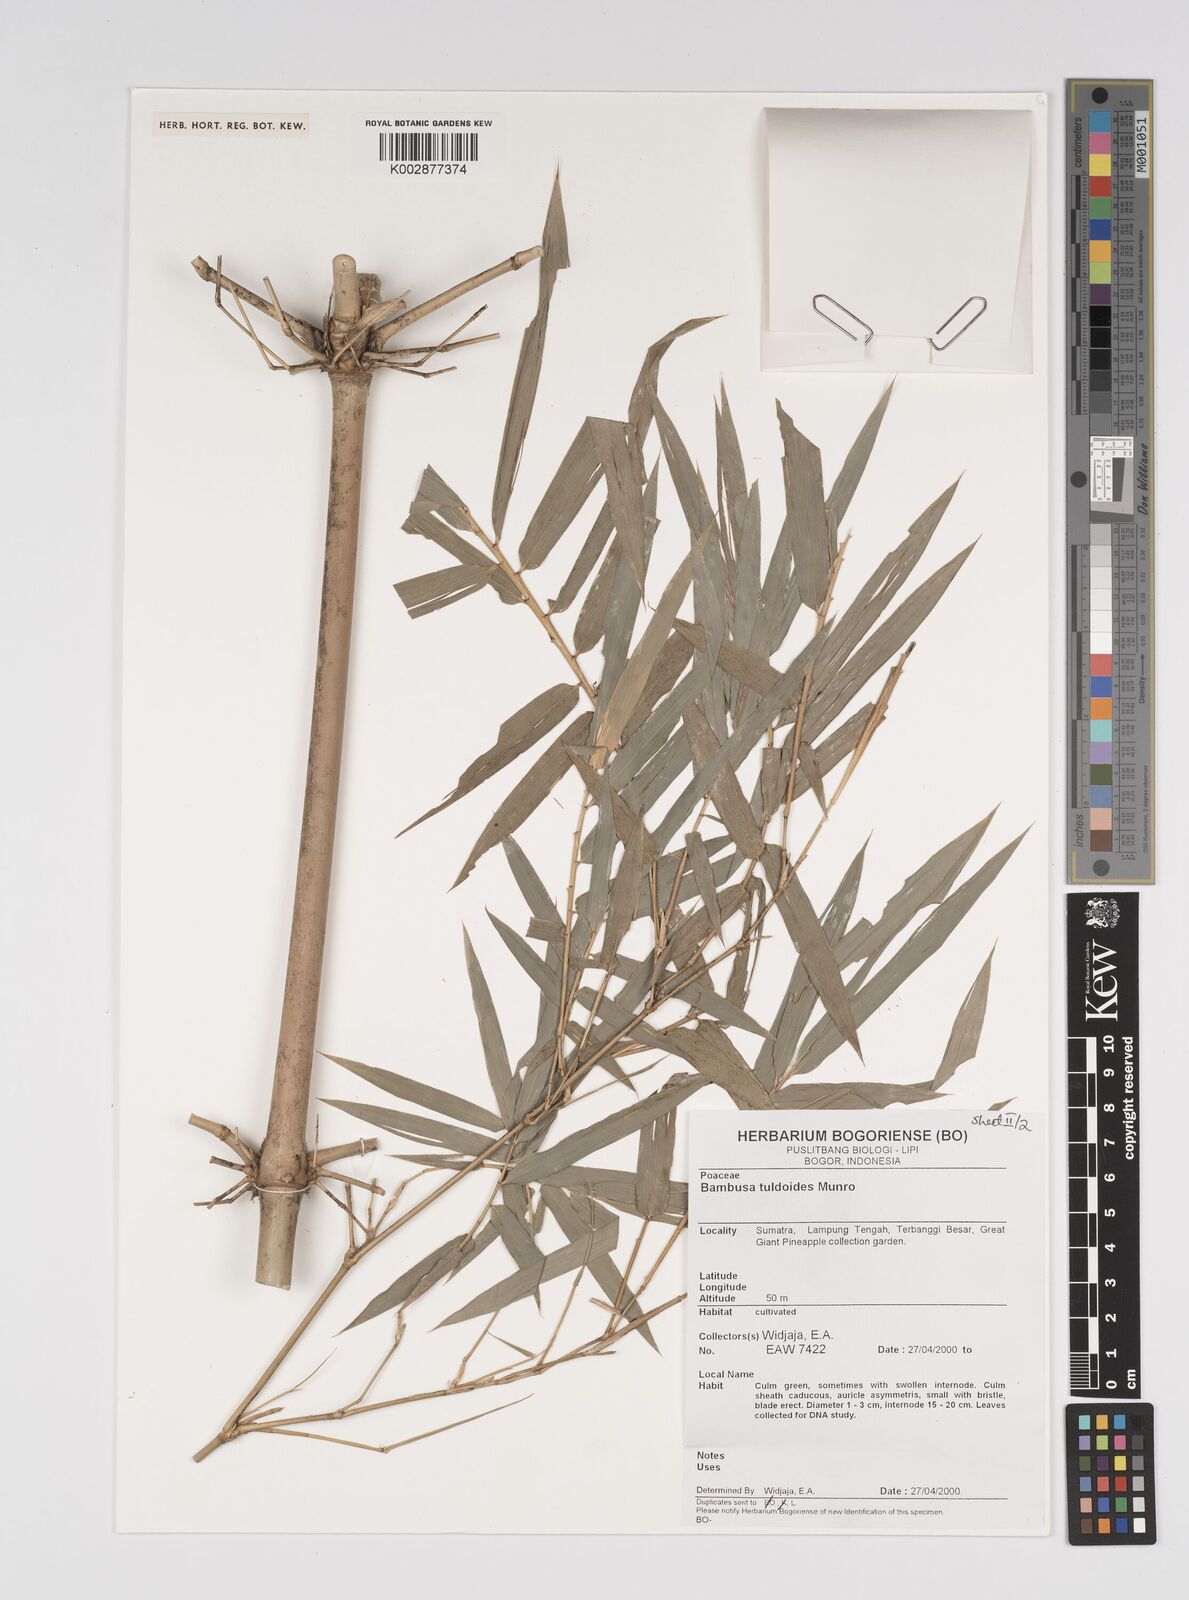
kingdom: Plantae
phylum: Tracheophyta
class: Liliopsida
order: Poales
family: Poaceae
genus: Bambusa
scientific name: Bambusa tuldoides
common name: Verdant bamboo
